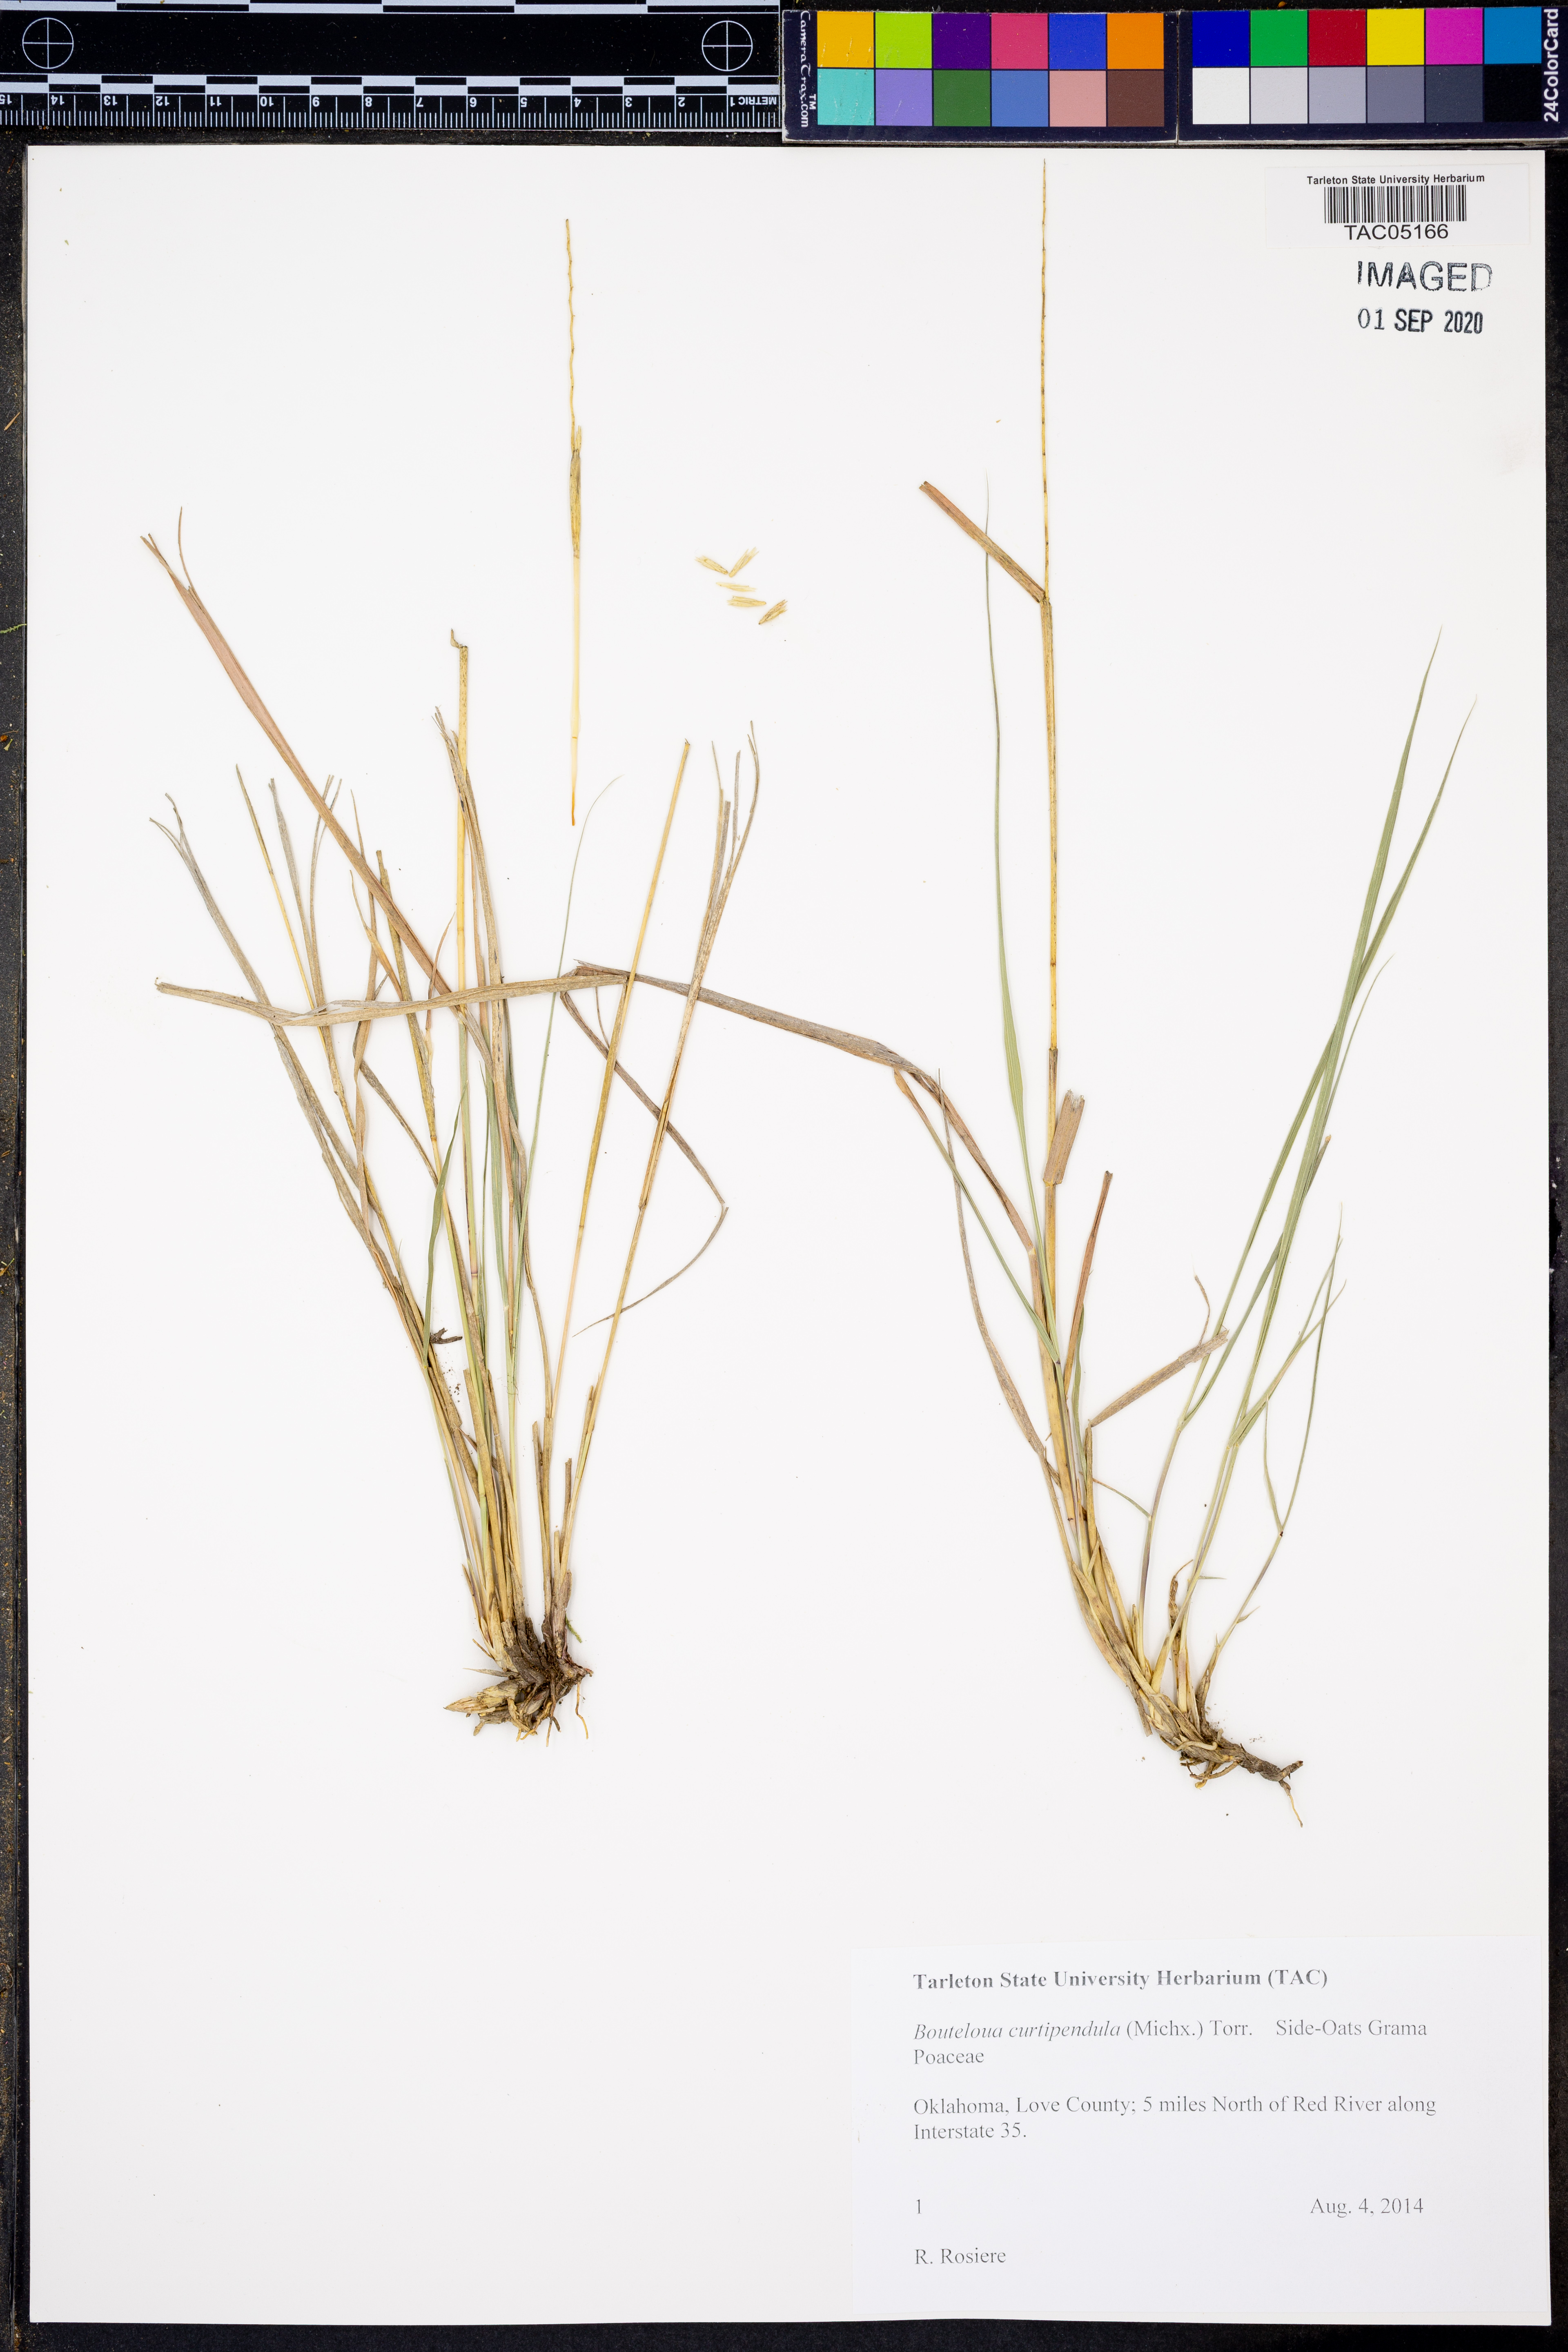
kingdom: Plantae
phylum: Tracheophyta
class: Liliopsida
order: Poales
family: Poaceae
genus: Bouteloua
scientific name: Bouteloua curtipendula
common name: Side-oats grama
